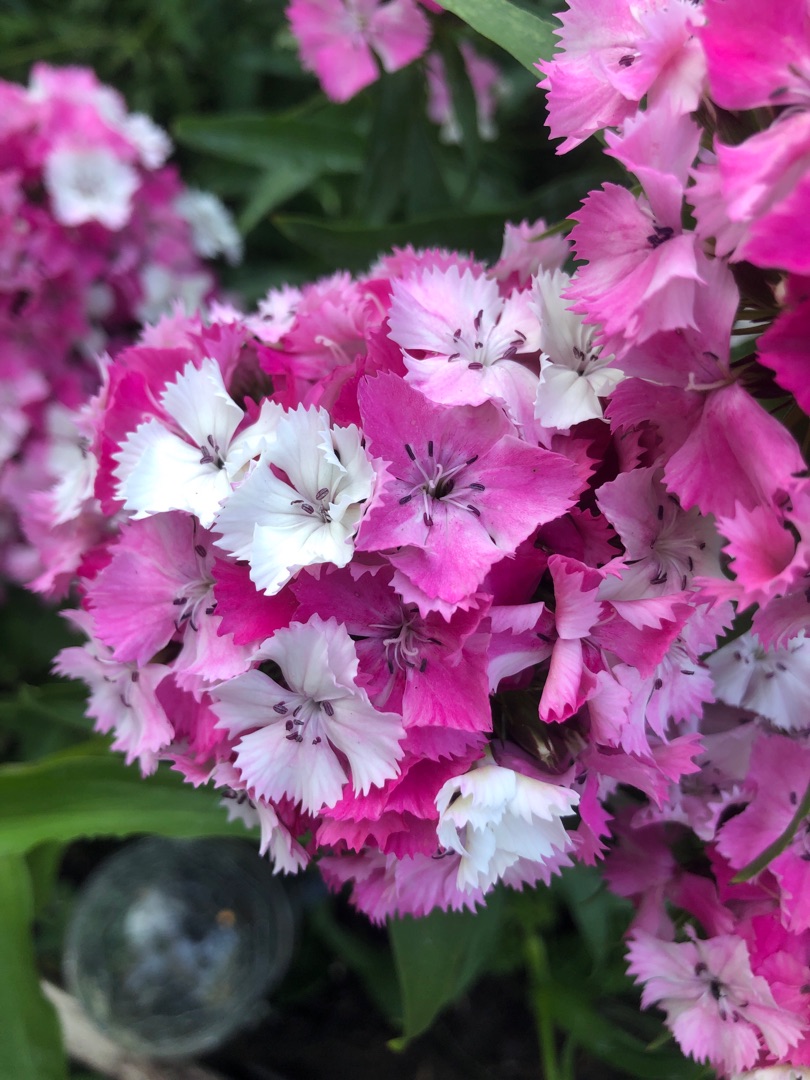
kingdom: Plantae
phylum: Tracheophyta
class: Magnoliopsida
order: Caryophyllales
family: Caryophyllaceae
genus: Dianthus
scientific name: Dianthus barbatus
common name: Studenter-nellike
